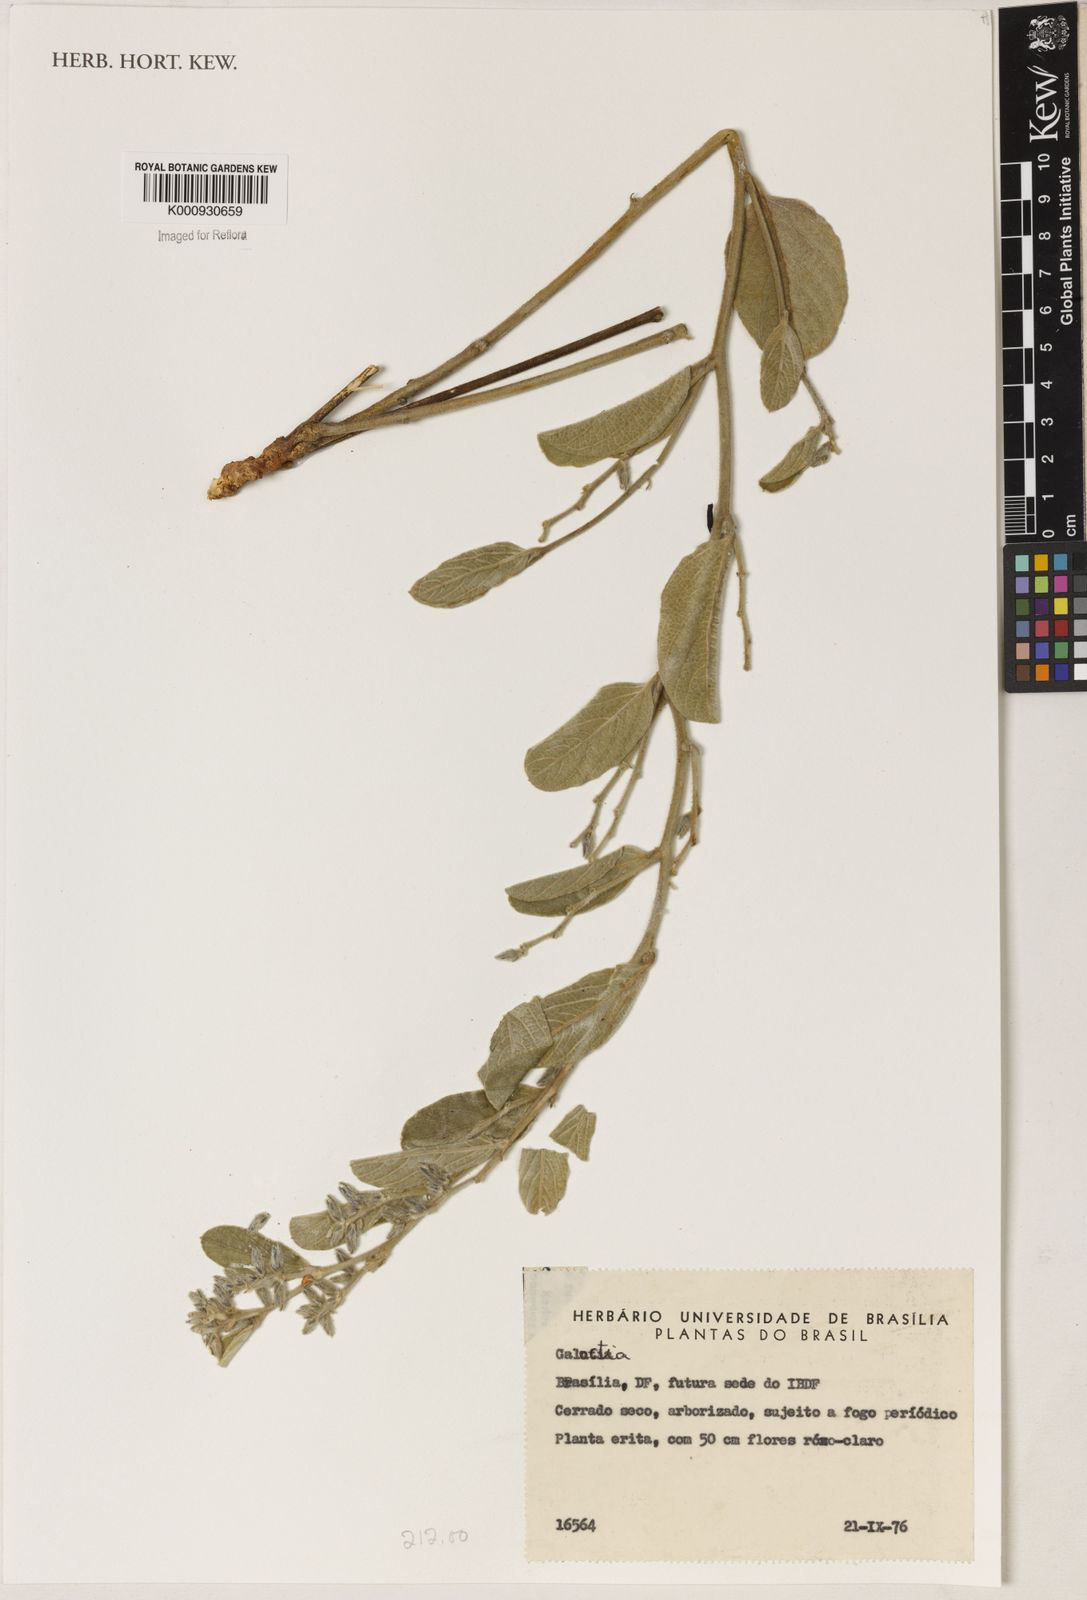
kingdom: Plantae
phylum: Tracheophyta
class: Magnoliopsida
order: Fabales
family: Fabaceae
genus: Galactia
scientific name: Galactia
